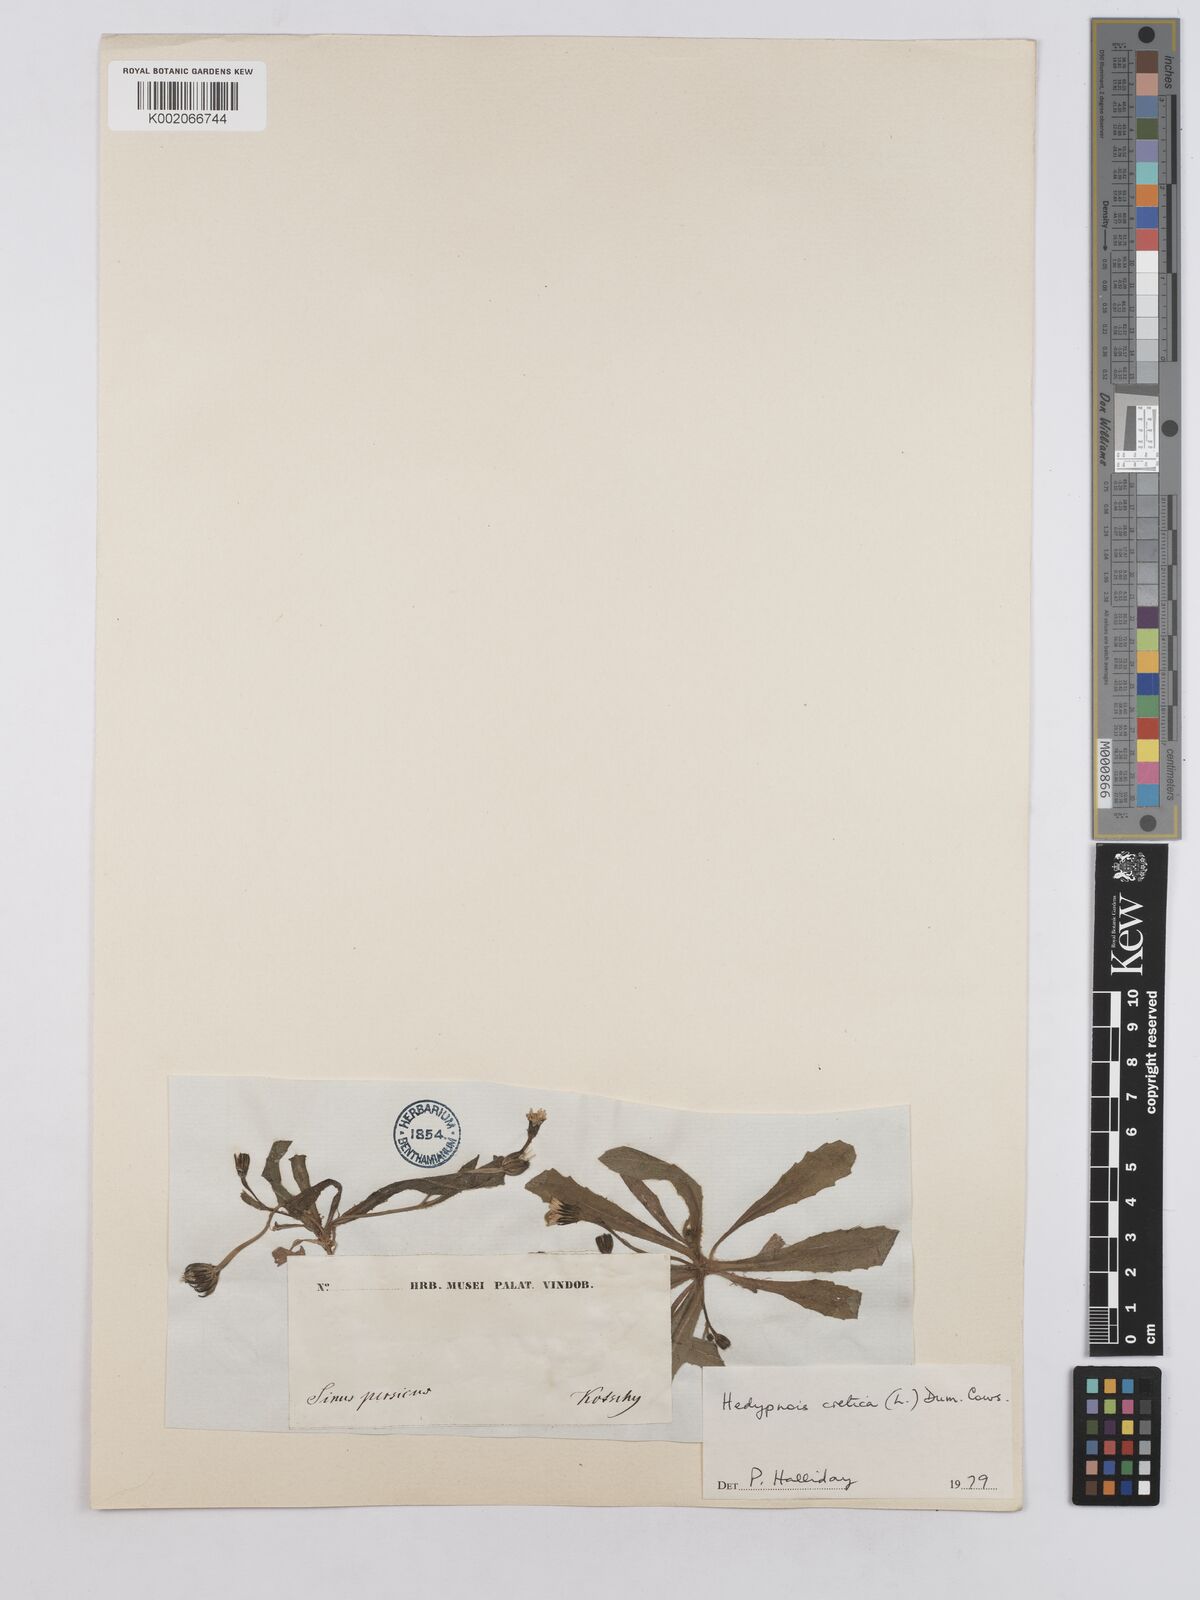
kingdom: Plantae
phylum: Tracheophyta
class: Magnoliopsida
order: Asterales
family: Asteraceae
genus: Hedypnois
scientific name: Hedypnois cretica
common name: Scaly hawkbit
